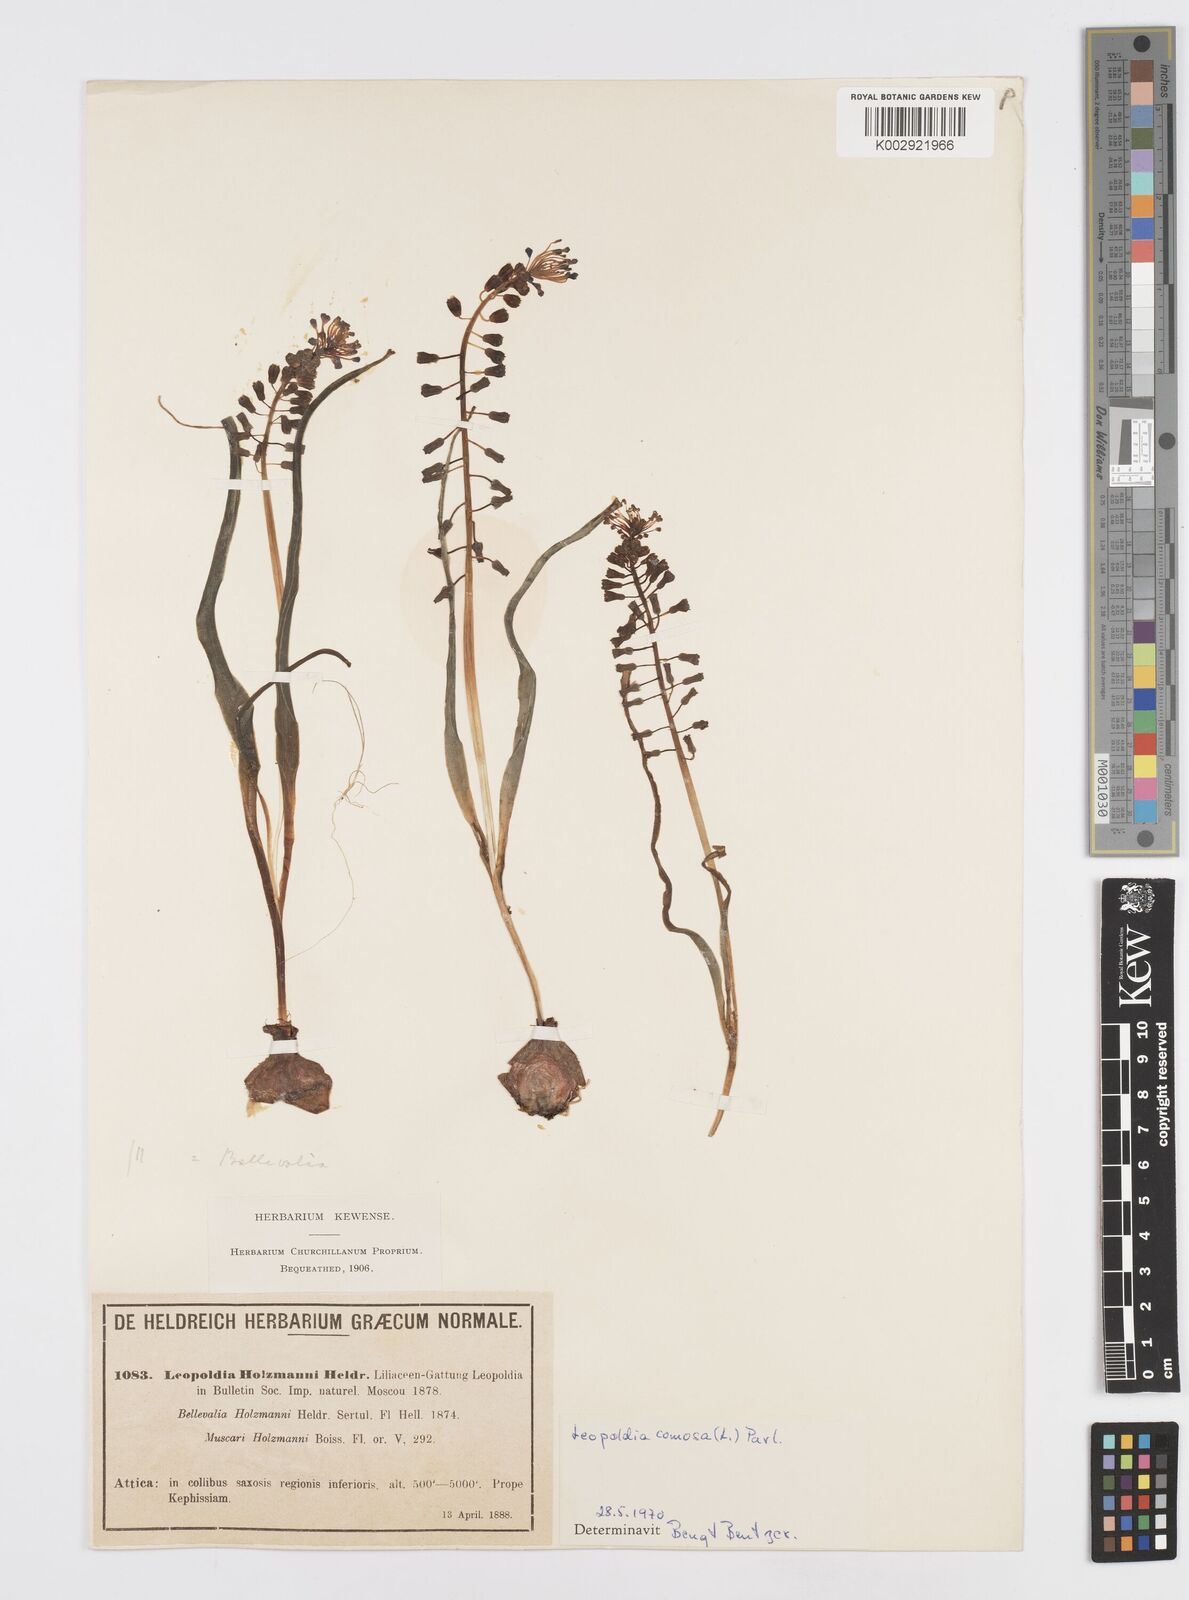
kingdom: Plantae
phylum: Tracheophyta
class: Liliopsida
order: Asparagales
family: Asparagaceae
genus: Muscari
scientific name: Muscari comosum
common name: Tassel hyacinth
